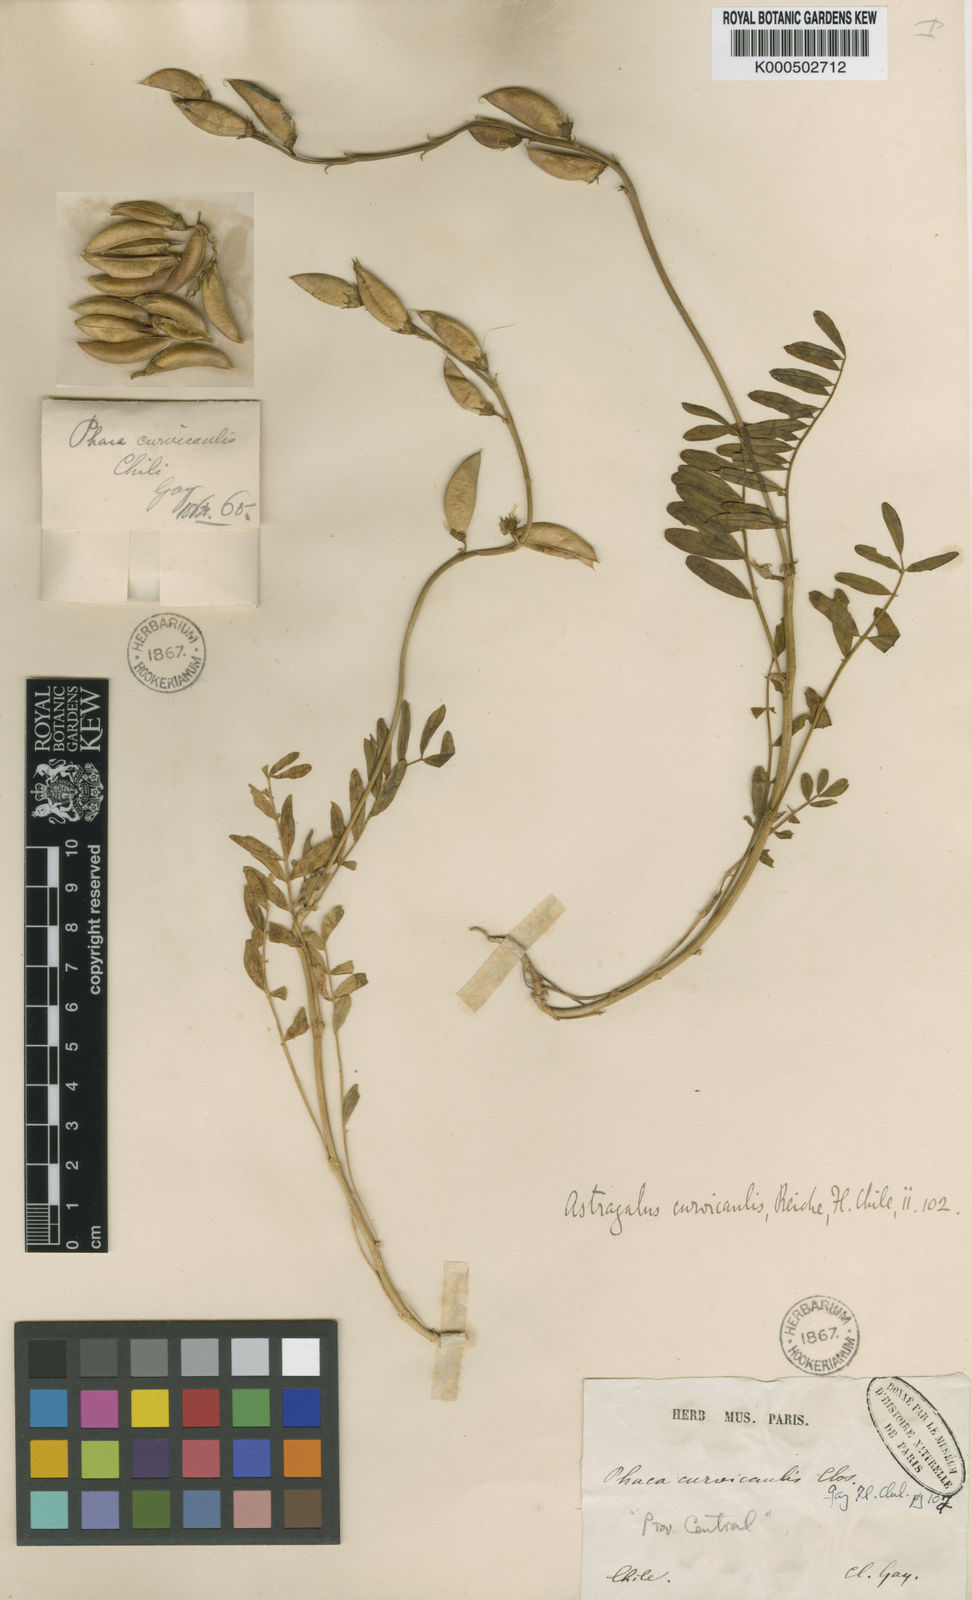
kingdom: Plantae
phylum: Tracheophyta
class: Magnoliopsida
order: Fabales
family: Fabaceae
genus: Astragalus
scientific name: Astragalus curvicaulis
